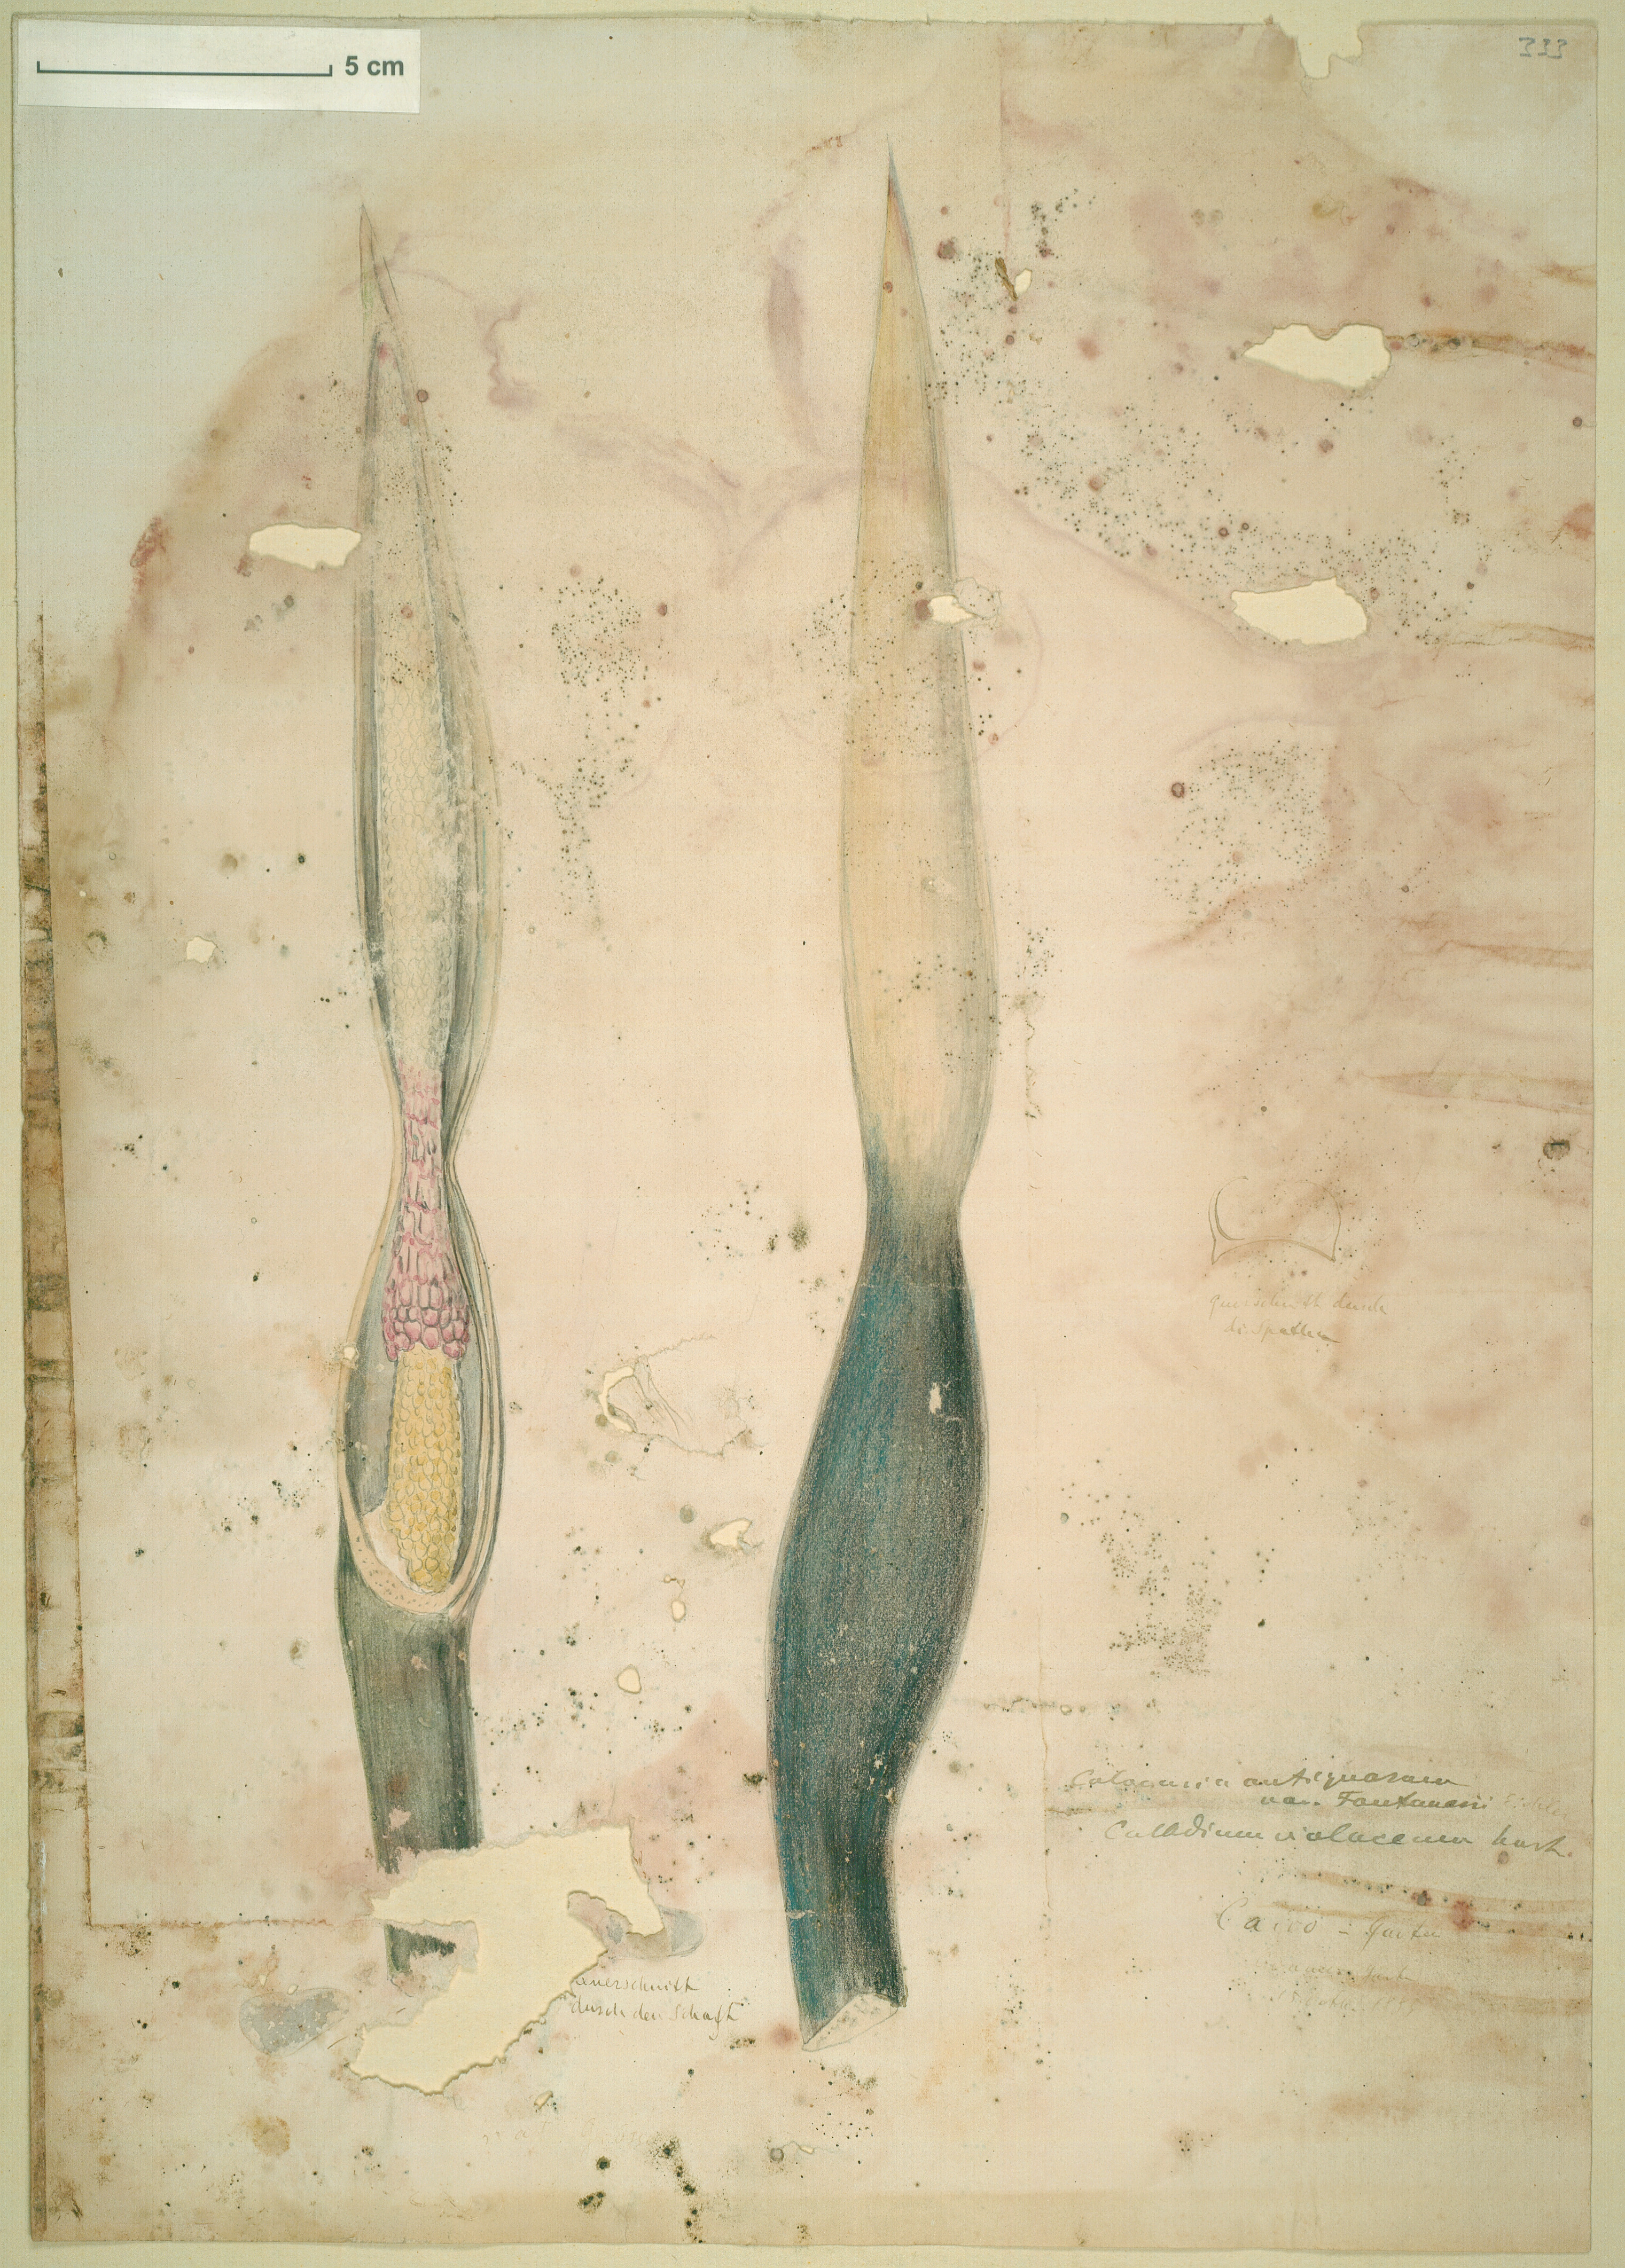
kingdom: Plantae
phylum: Tracheophyta
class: Liliopsida
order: Alismatales
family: Araceae
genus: Colocasia
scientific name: Colocasia esculenta
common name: Taro
